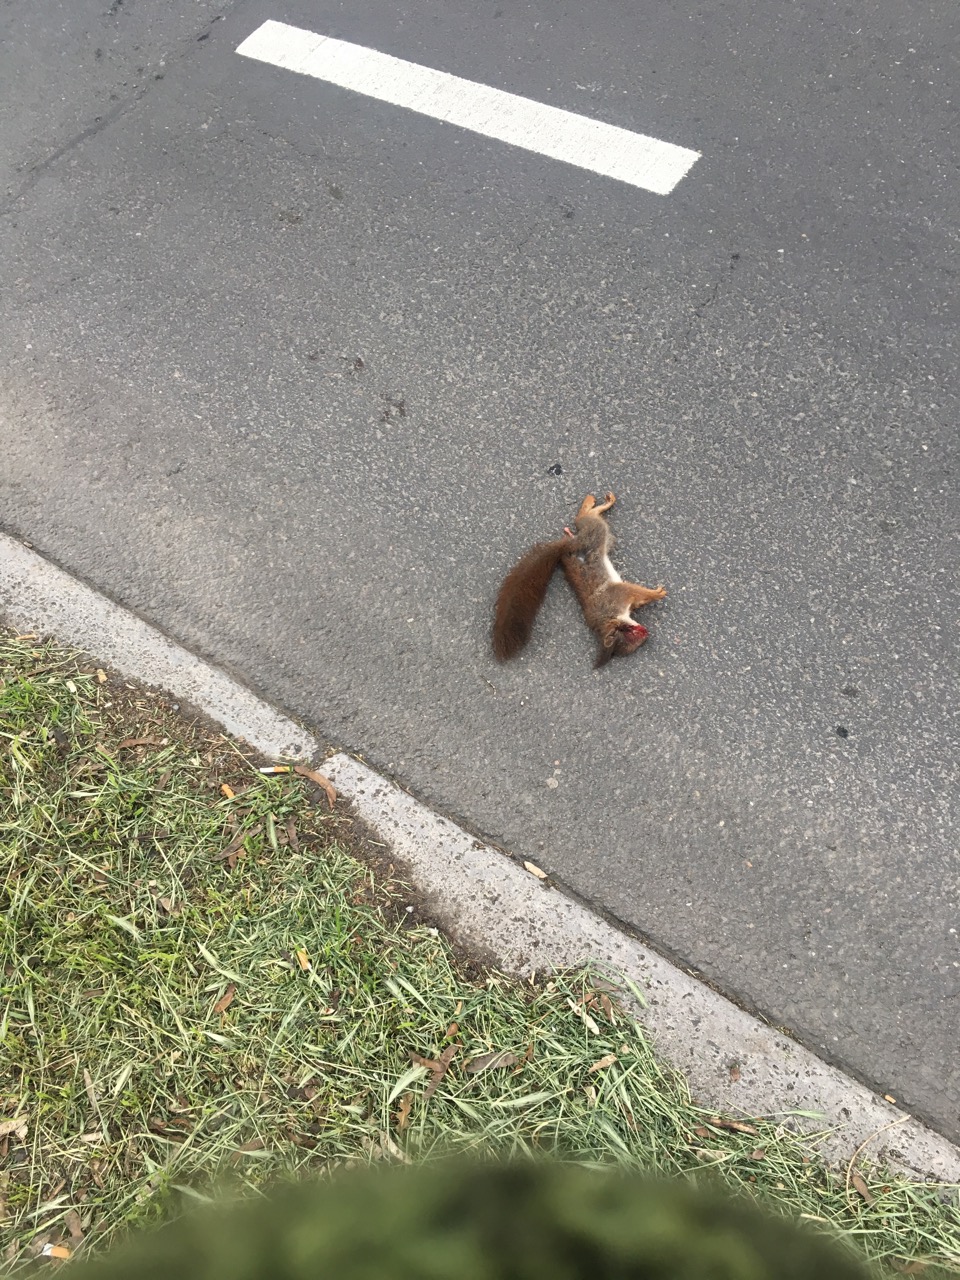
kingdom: Animalia
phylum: Chordata
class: Mammalia
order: Rodentia
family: Sciuridae
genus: Sciurus
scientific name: Sciurus vulgaris
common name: Eurasian red squirrel
